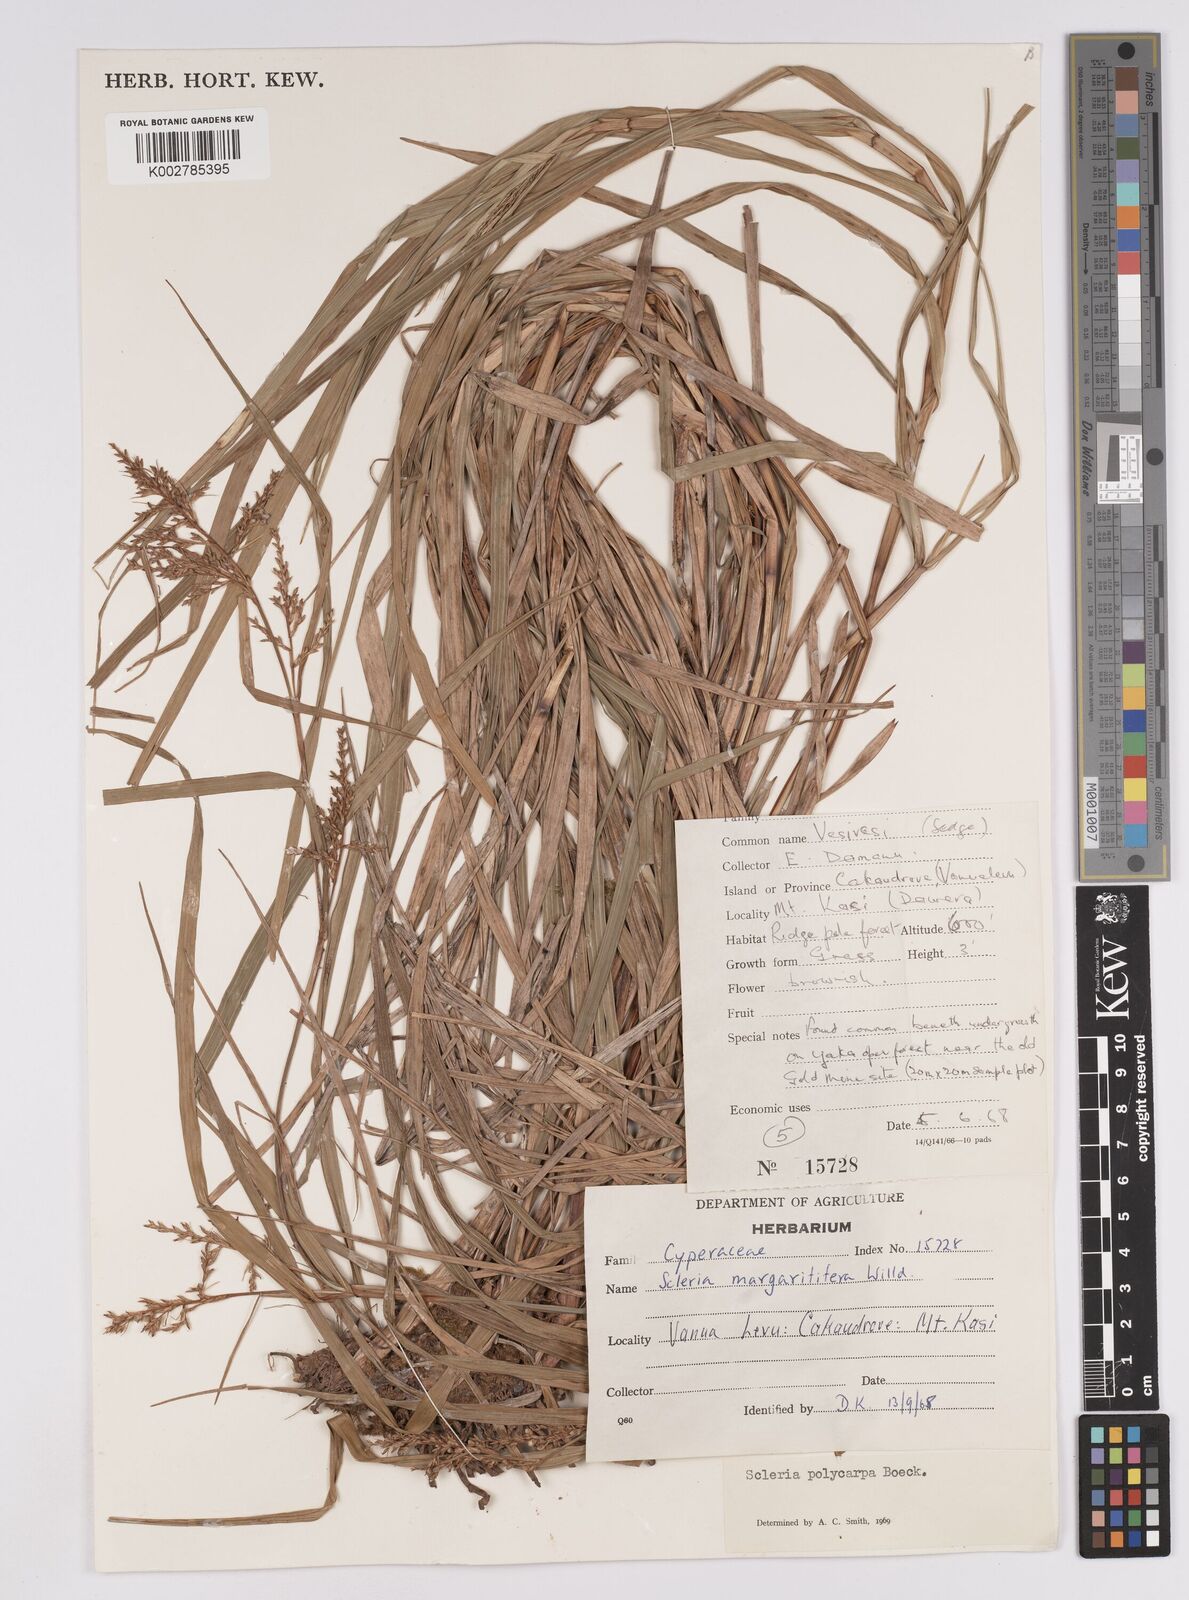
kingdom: Plantae
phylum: Tracheophyta
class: Liliopsida
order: Poales
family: Cyperaceae
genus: Scleria
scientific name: Scleria polycarpa
